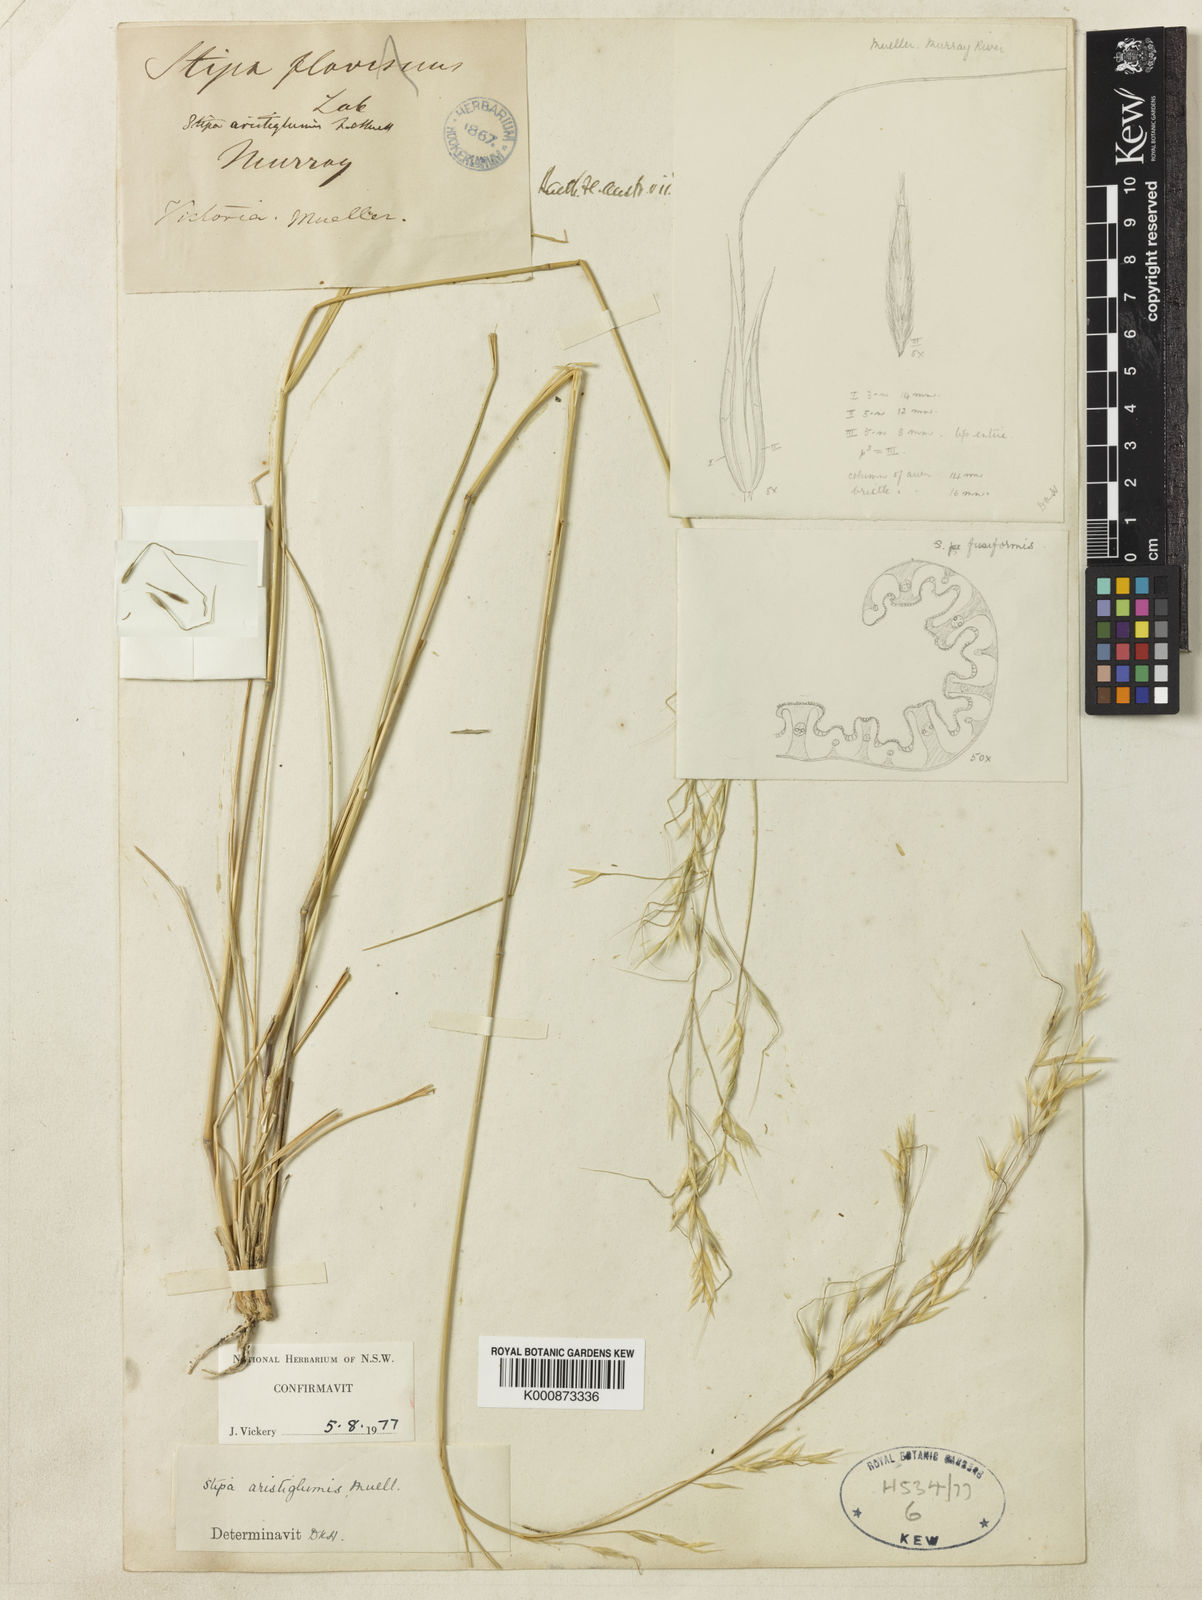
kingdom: Plantae
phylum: Tracheophyta
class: Liliopsida
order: Poales
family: Poaceae
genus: Austrostipa
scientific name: Austrostipa aristiglumis
